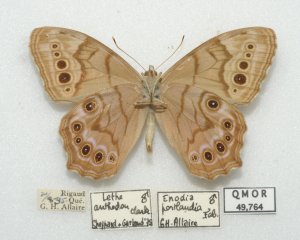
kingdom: Animalia
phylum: Arthropoda
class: Insecta
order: Lepidoptera
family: Nymphalidae
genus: Lethe
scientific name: Lethe anthedon
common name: Northern Pearly-Eye
